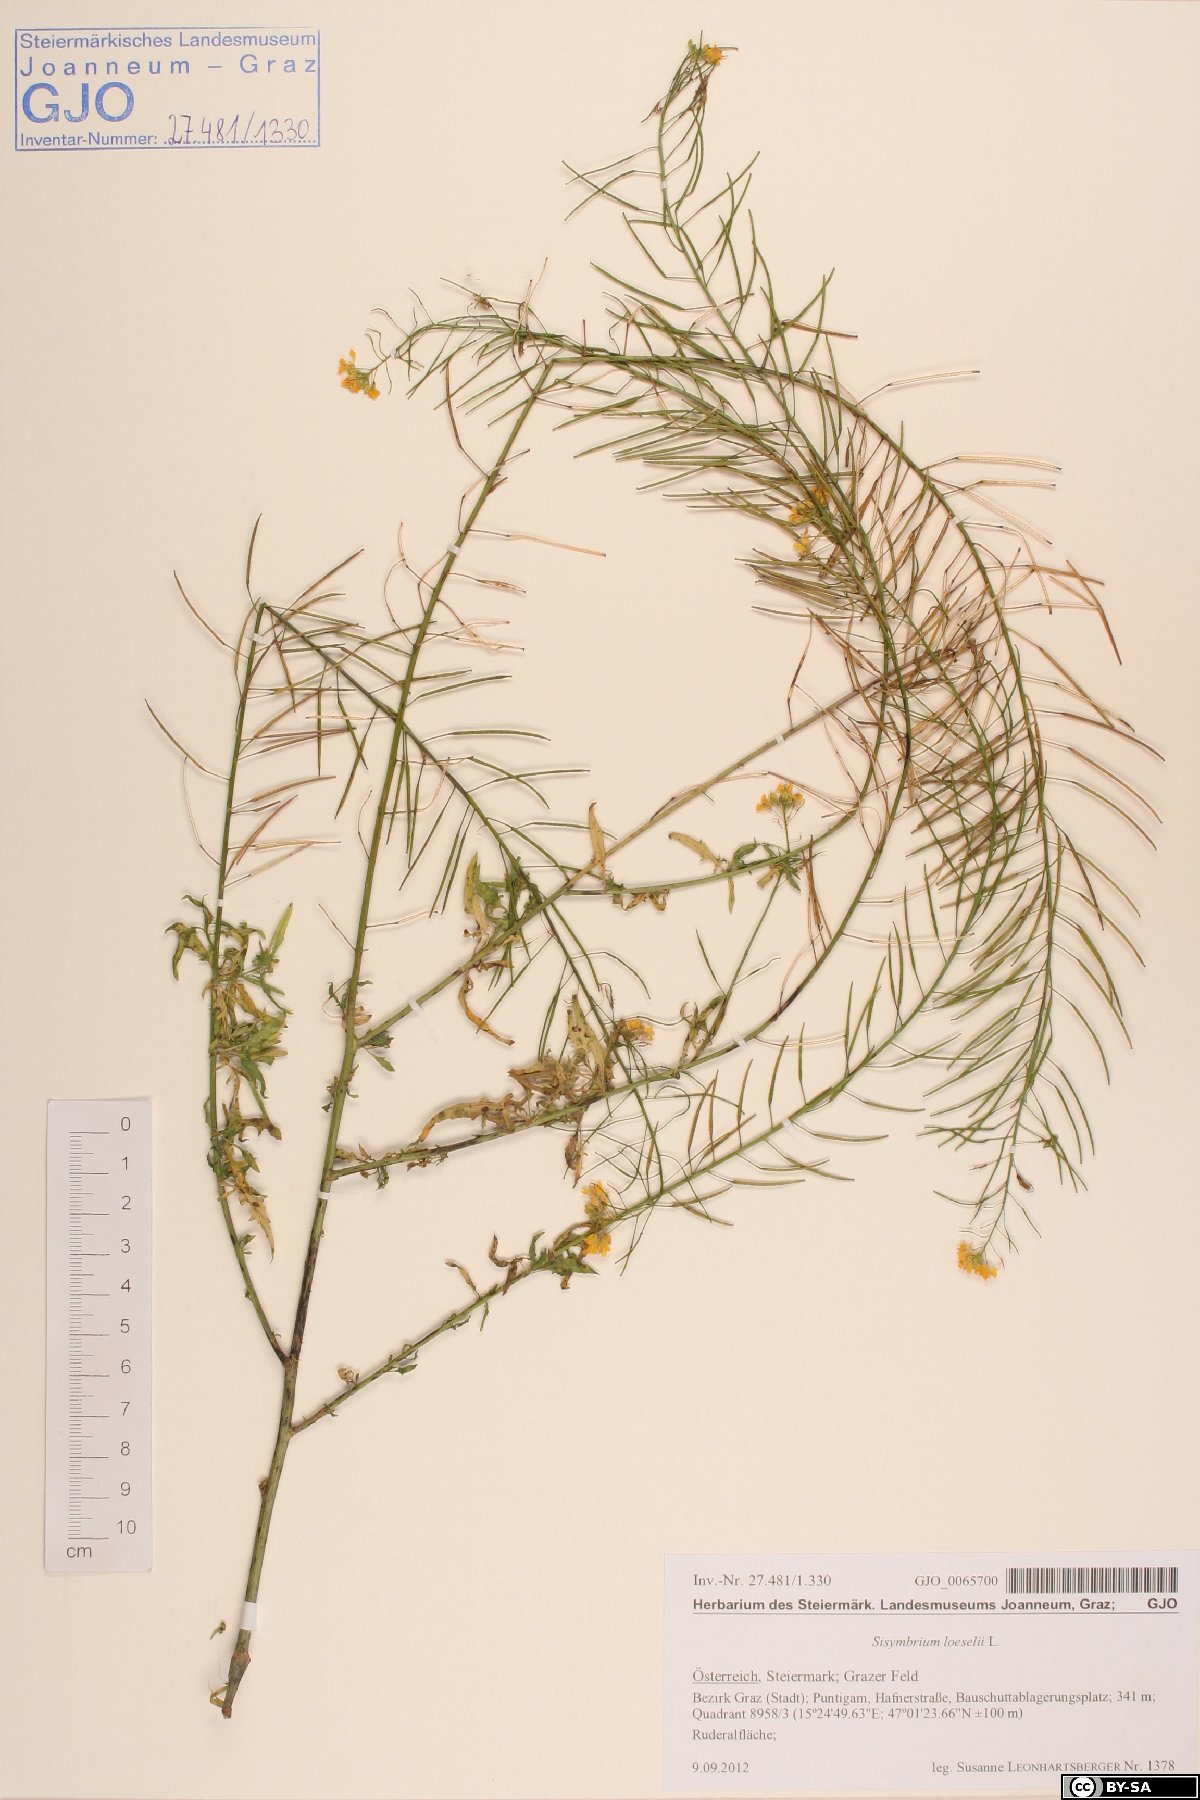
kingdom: Plantae
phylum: Tracheophyta
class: Magnoliopsida
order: Brassicales
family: Brassicaceae
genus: Sisymbrium
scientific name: Sisymbrium loeselii
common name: False london-rocket
